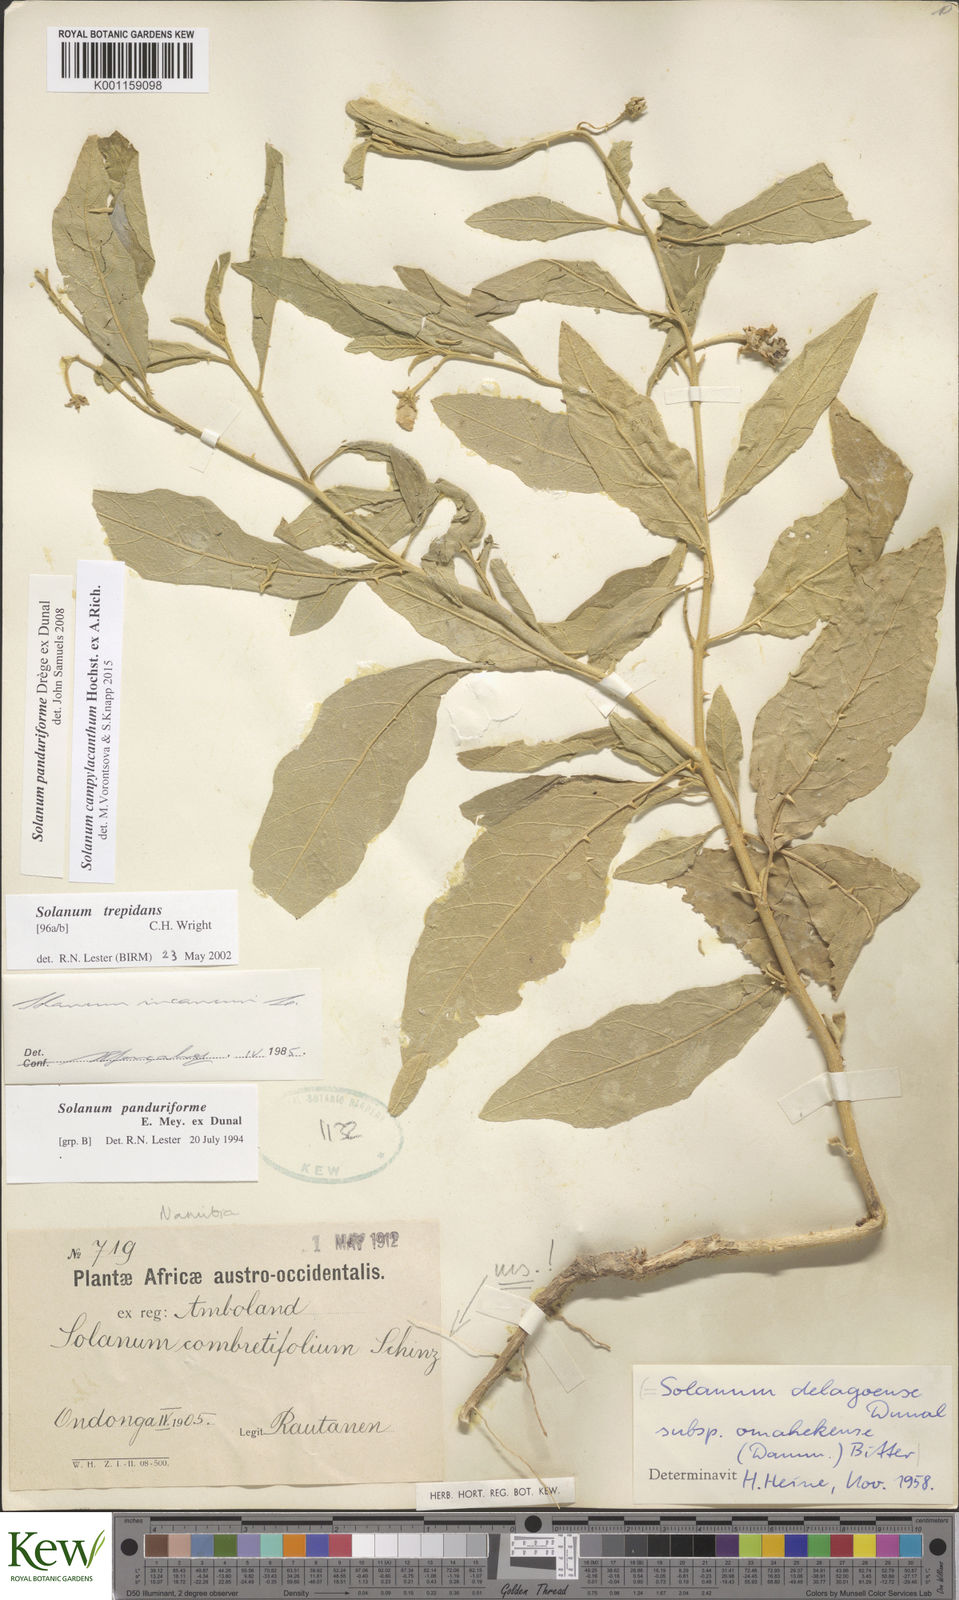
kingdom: Plantae
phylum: Tracheophyta
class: Magnoliopsida
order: Solanales
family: Solanaceae
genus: Solanum
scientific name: Solanum campylacanthum
